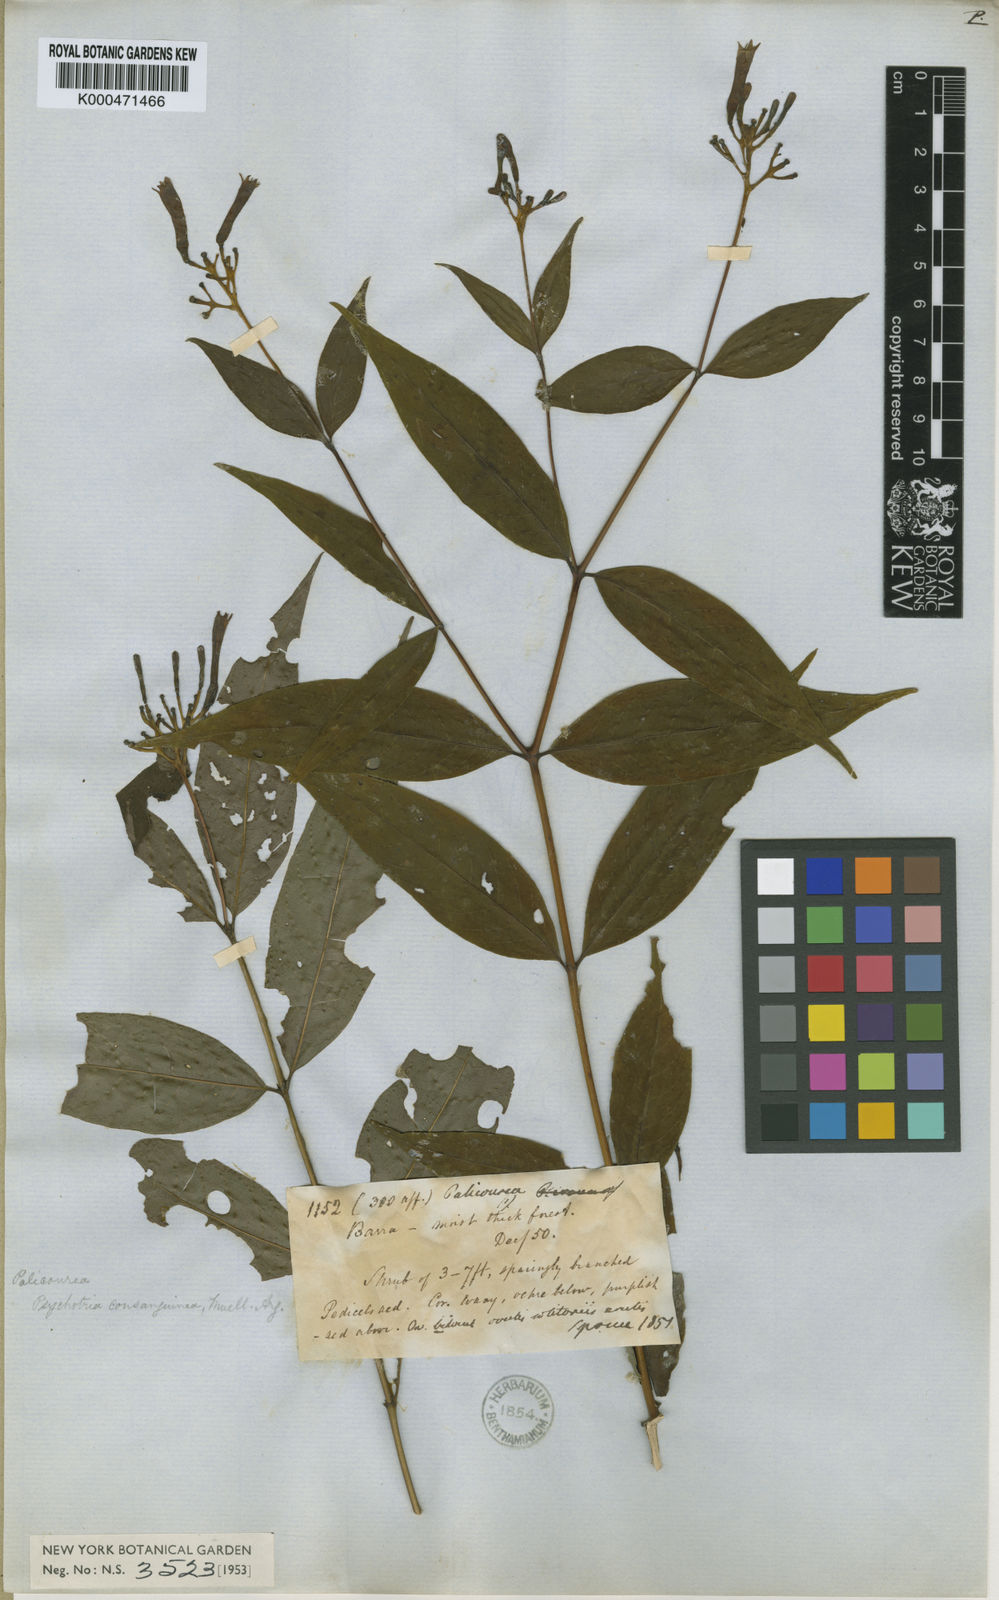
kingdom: Plantae
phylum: Tracheophyta
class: Magnoliopsida
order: Gentianales
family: Rubiaceae
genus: Palicourea
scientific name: Palicourea
